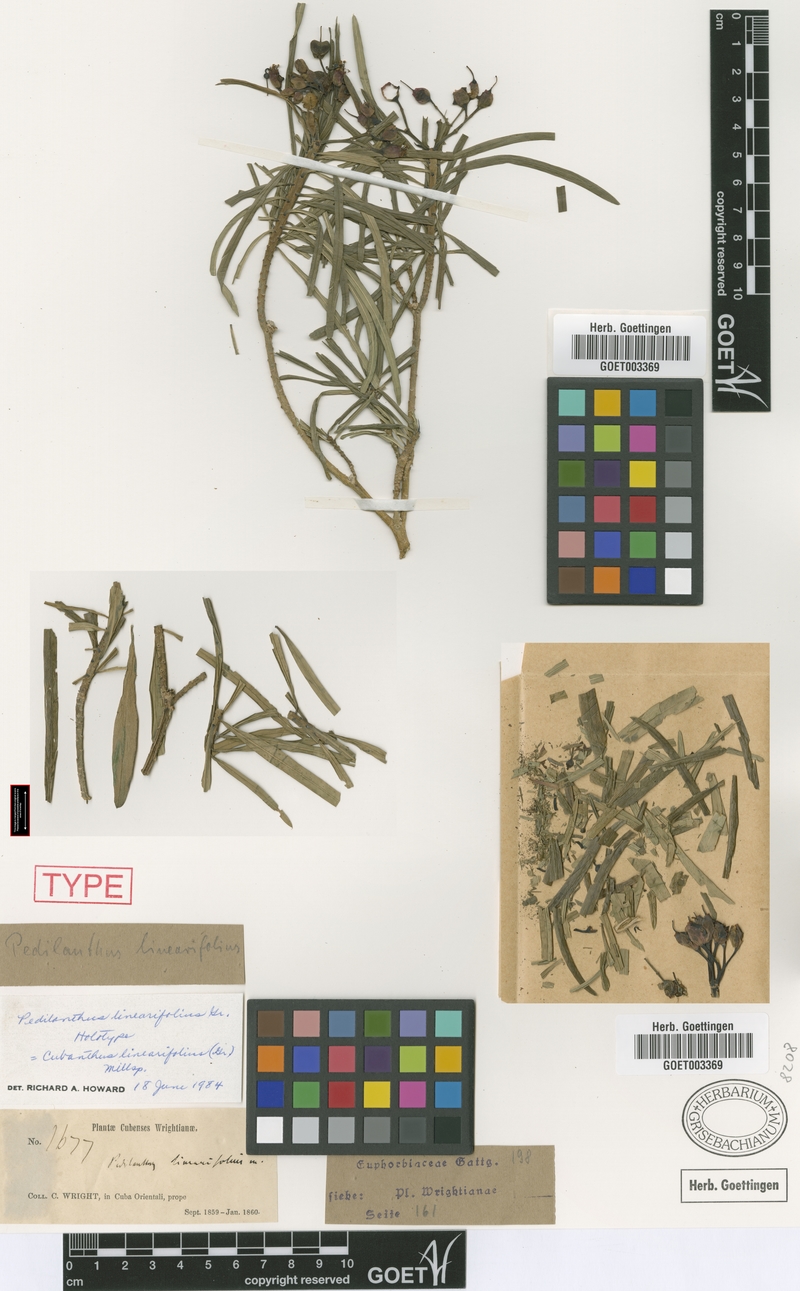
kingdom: Plantae
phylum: Tracheophyta
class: Magnoliopsida
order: Malpighiales
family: Euphorbiaceae
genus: Euphorbia
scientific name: Euphorbia scutiformis
